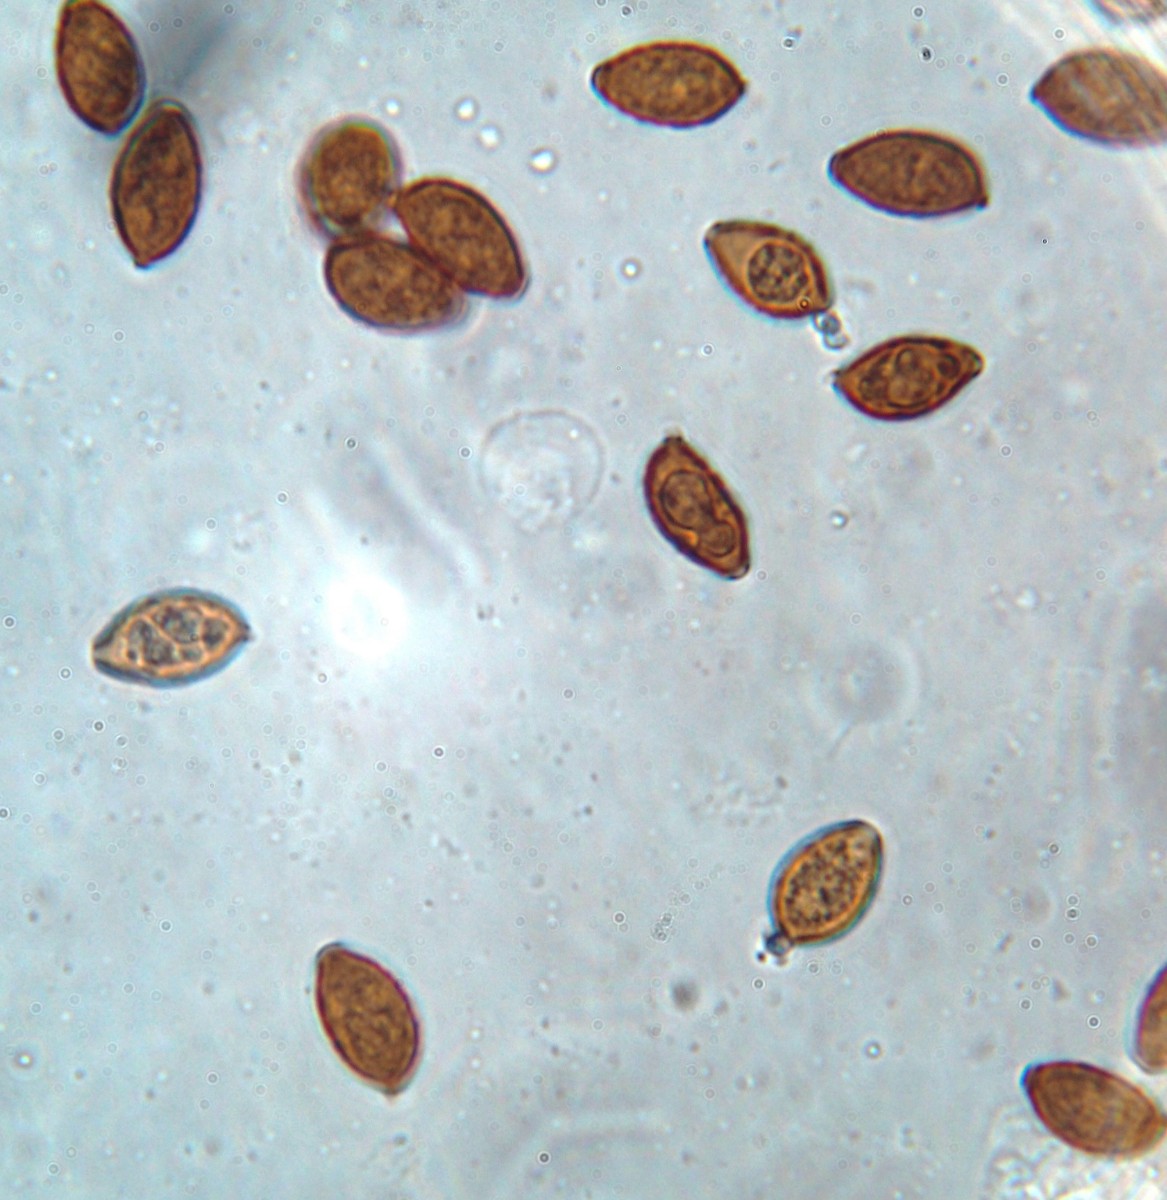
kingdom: Fungi
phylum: Basidiomycota
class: Agaricomycetes
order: Agaricales
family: Bolbitiaceae
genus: Panaeolina
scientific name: Panaeolina foenisecii
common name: høslætsvamp
